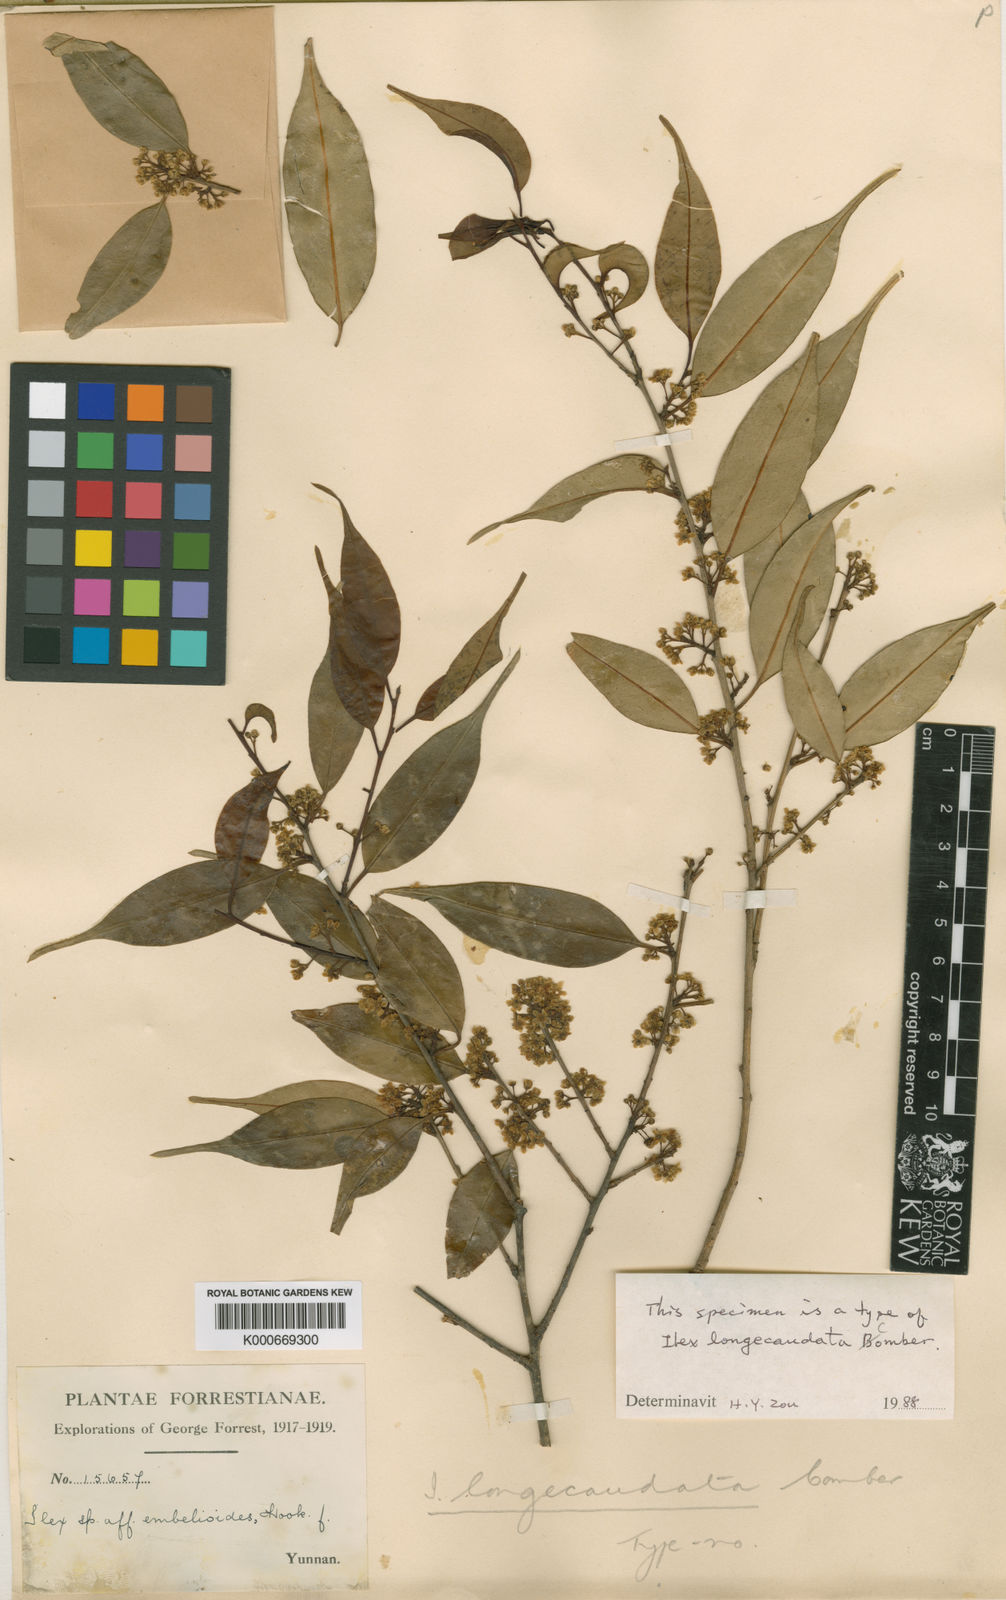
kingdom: Plantae
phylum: Tracheophyta
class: Magnoliopsida
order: Aquifoliales
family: Aquifoliaceae
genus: Ilex
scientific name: Ilex longecaudata
